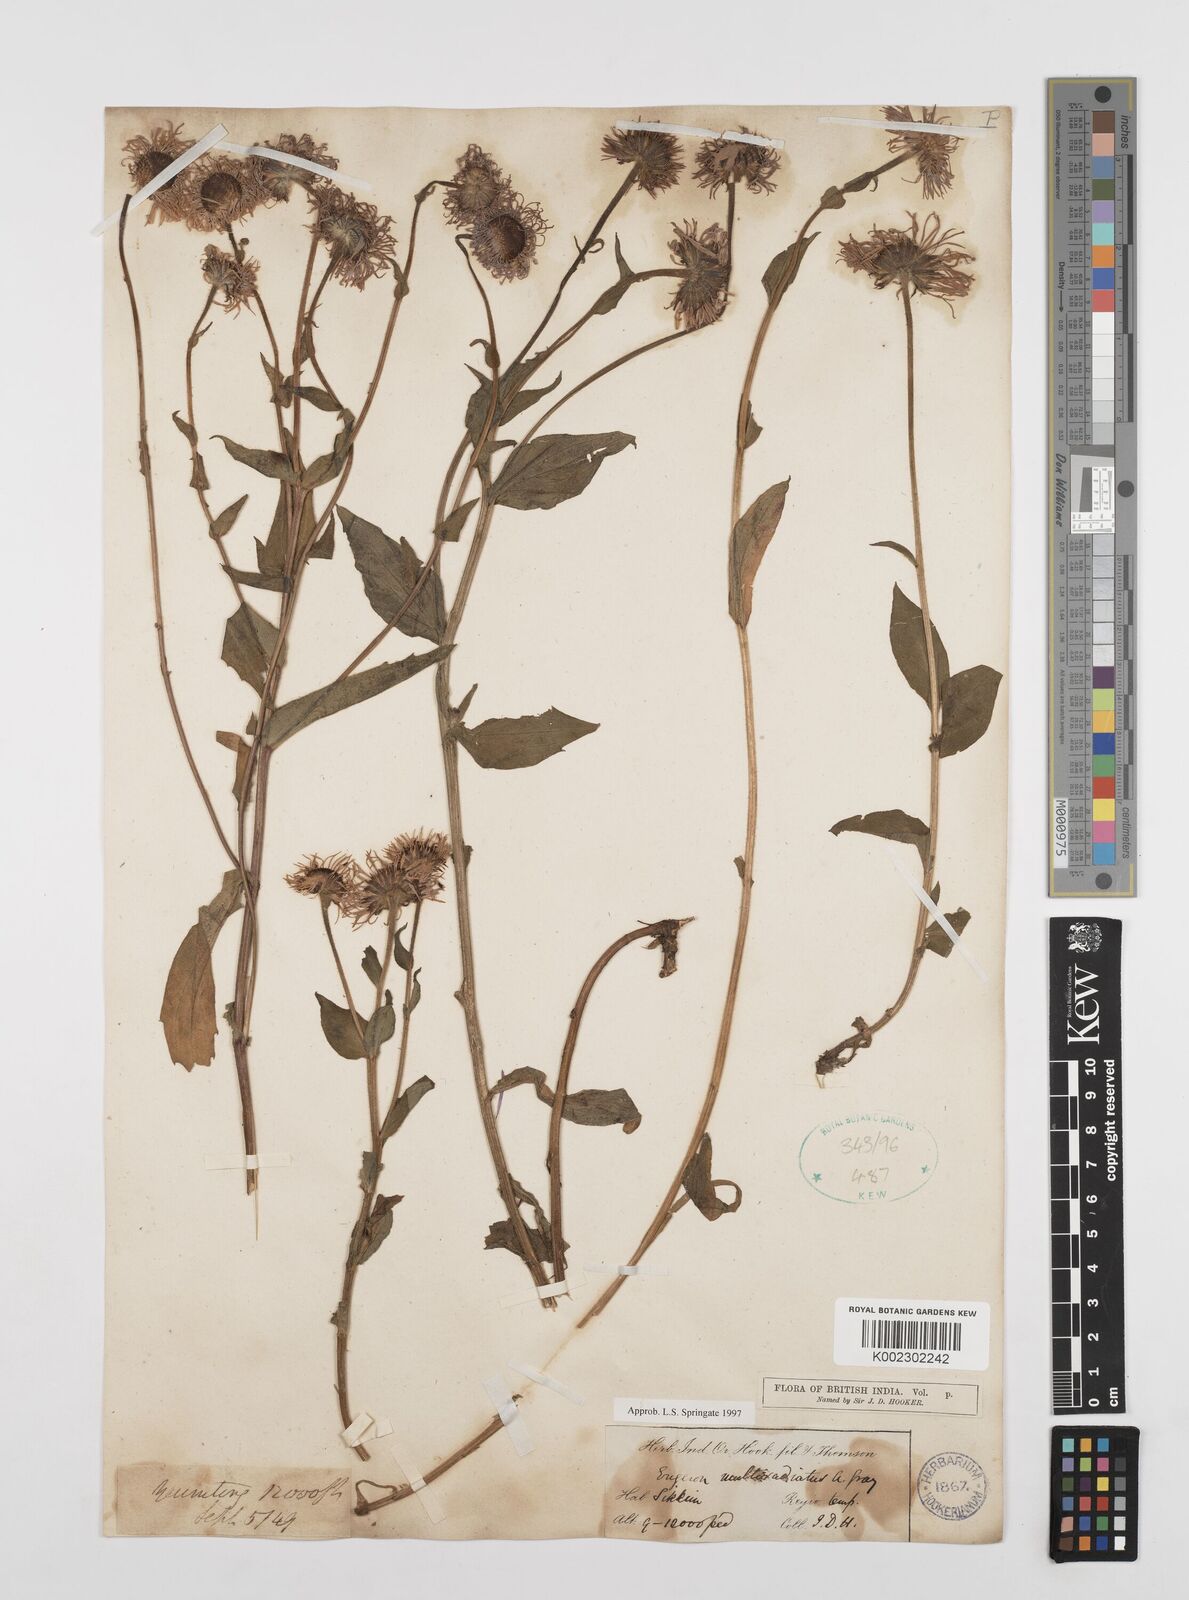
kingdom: Plantae
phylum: Tracheophyta
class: Magnoliopsida
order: Asterales
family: Asteraceae
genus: Erigeron
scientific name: Erigeron multiradiatus
